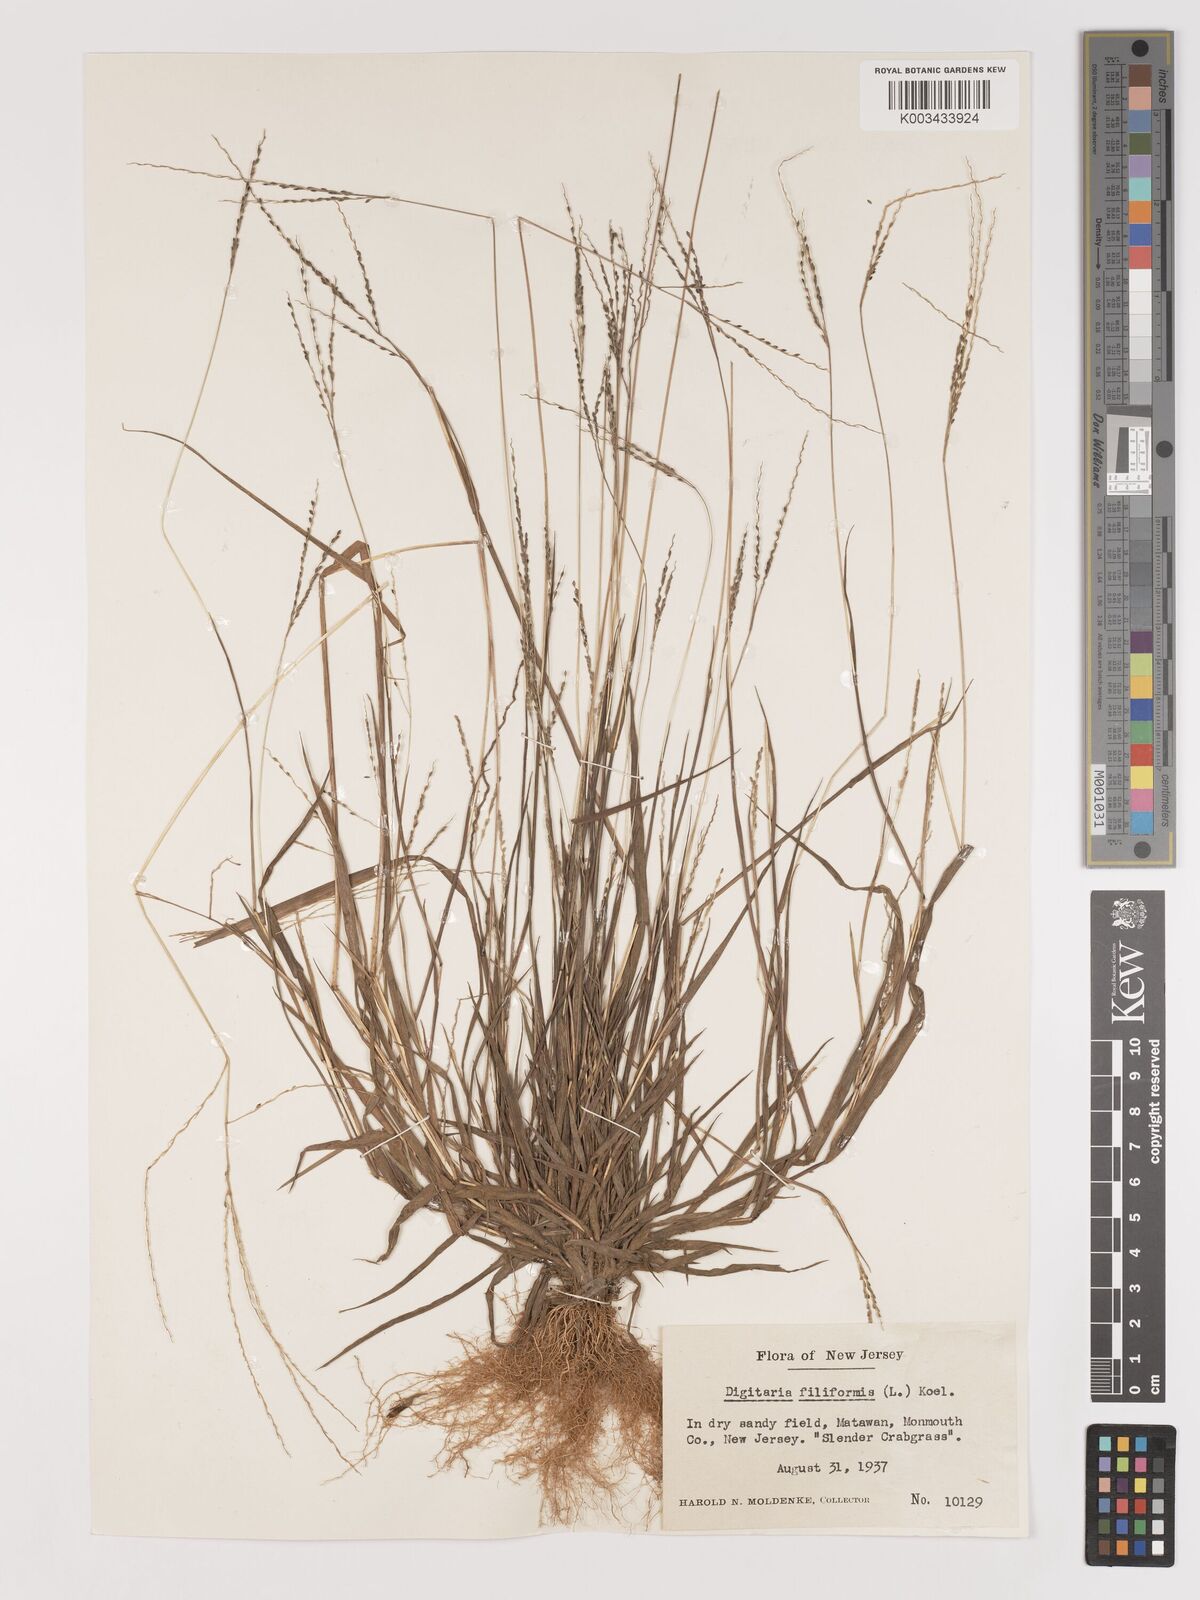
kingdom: Plantae
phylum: Tracheophyta
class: Liliopsida
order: Poales
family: Poaceae
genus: Digitaria
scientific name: Digitaria filiformis
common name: Slender crabgrass
